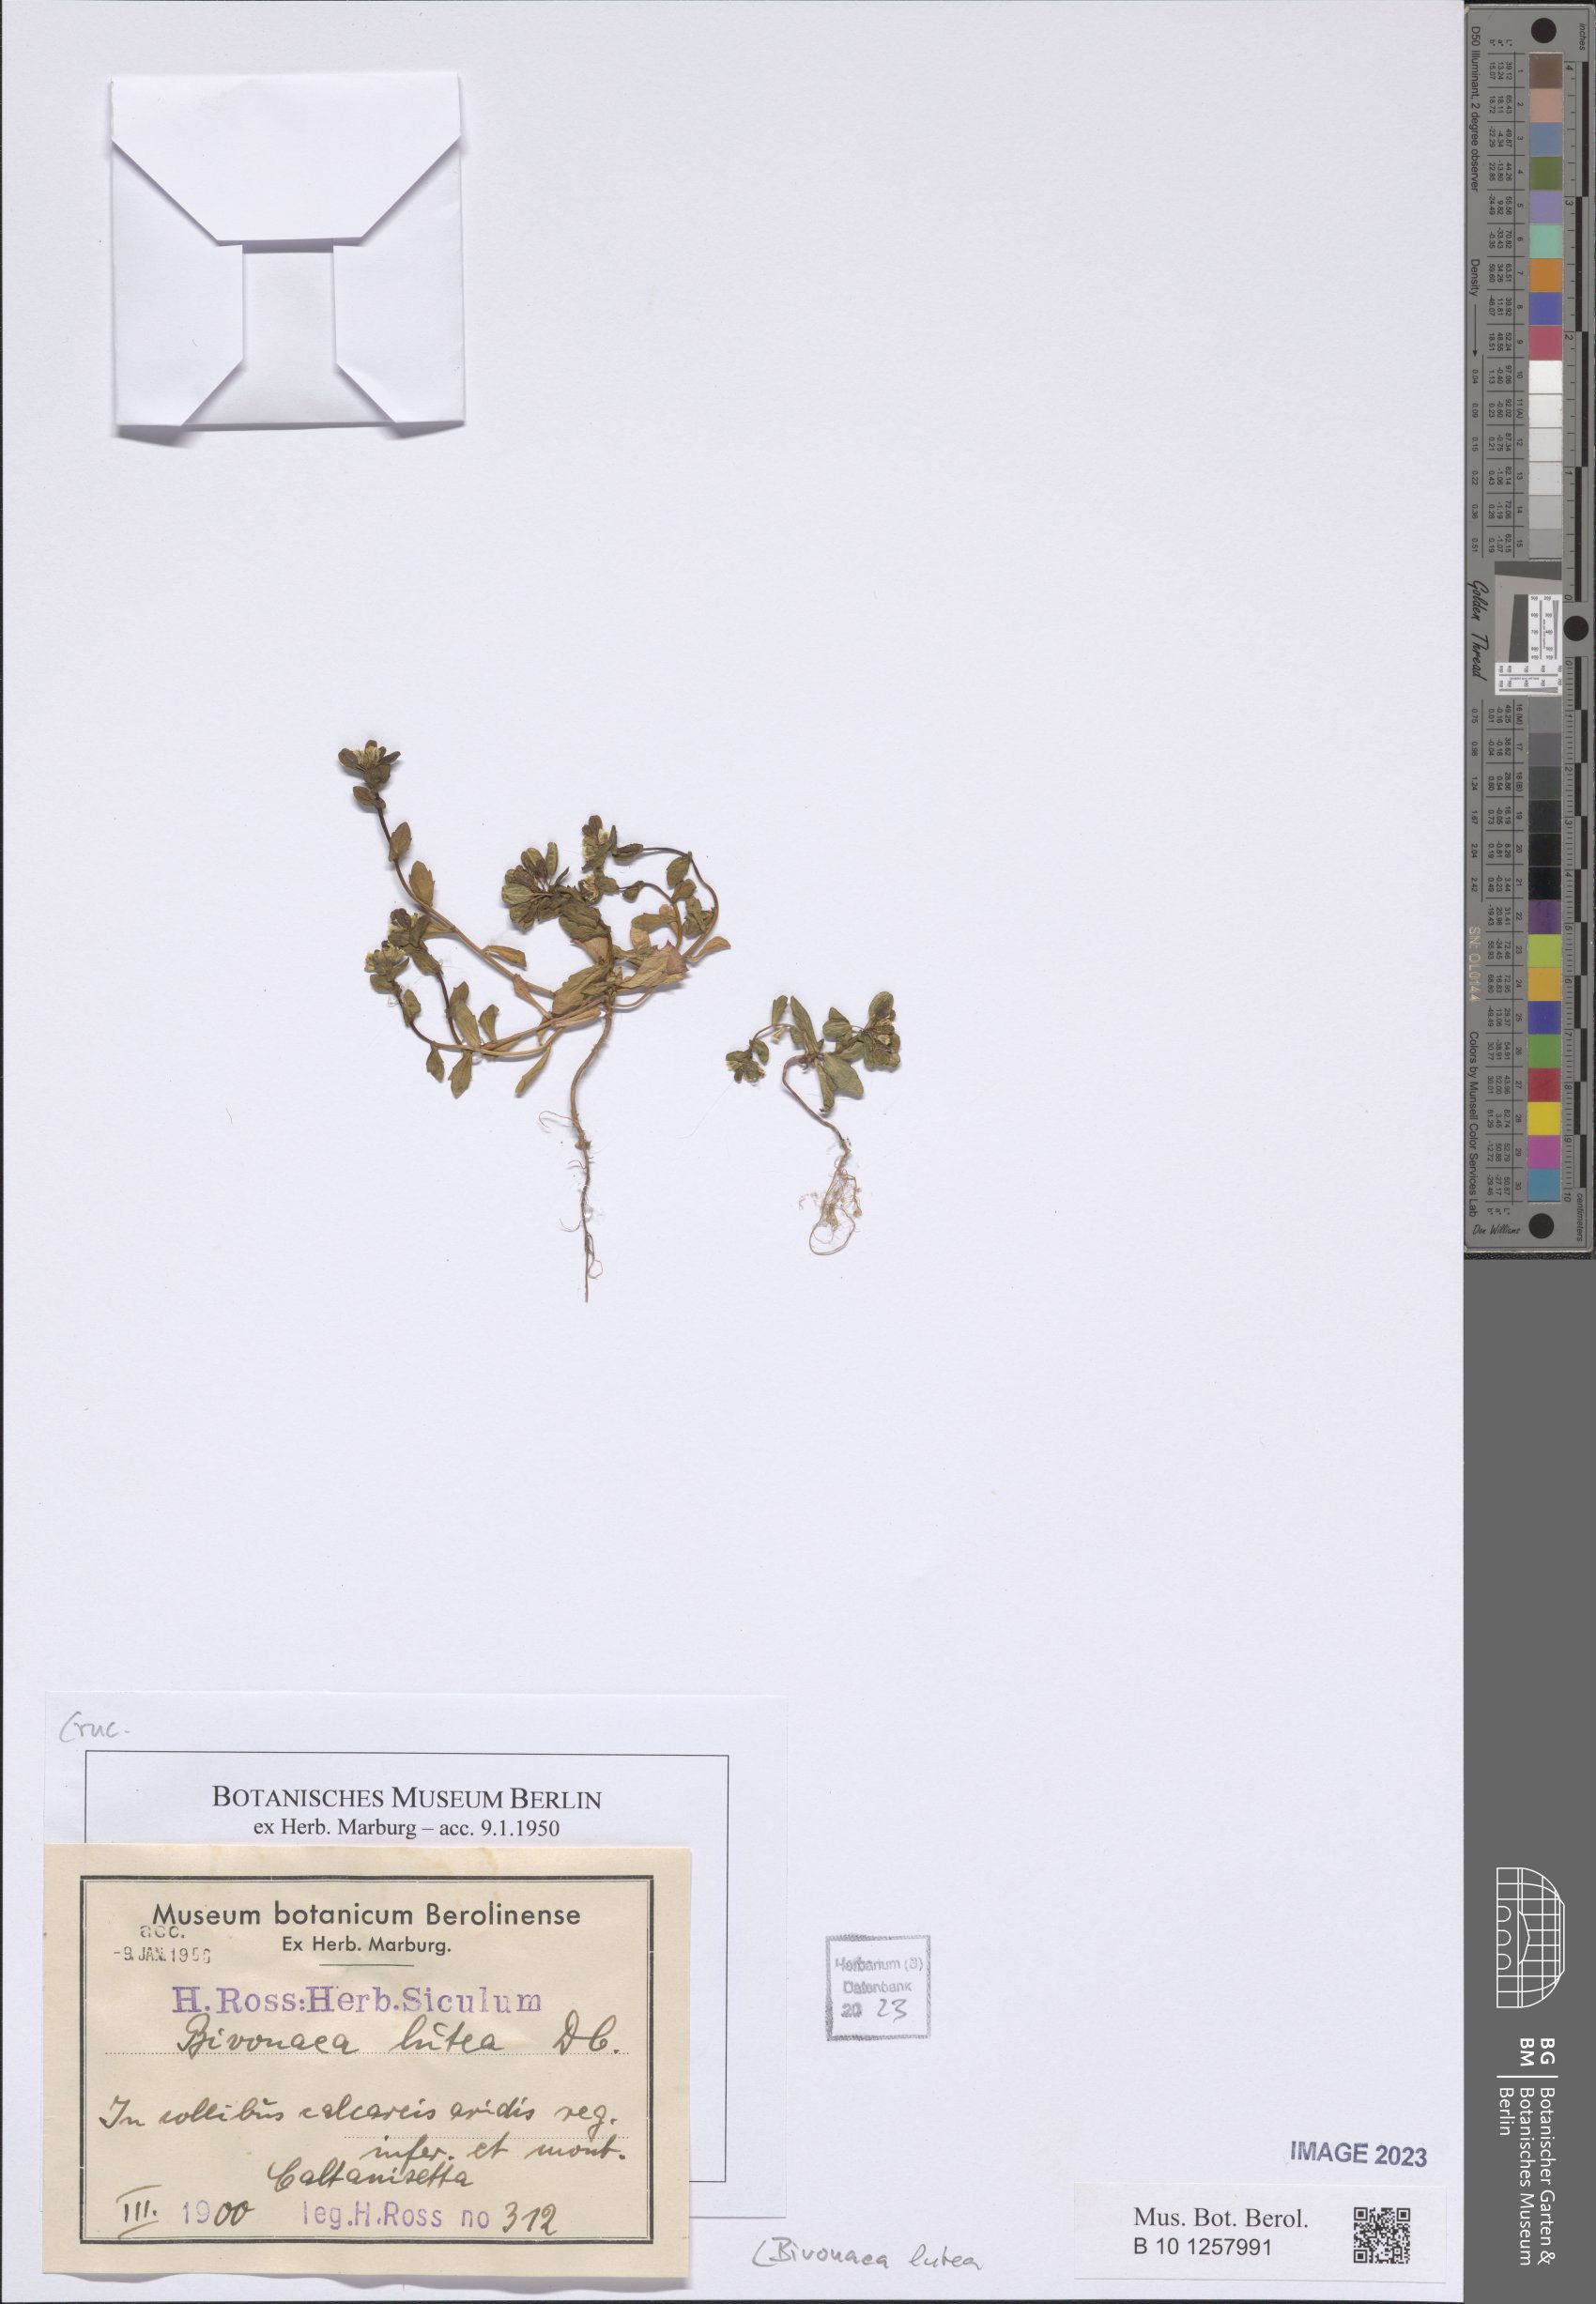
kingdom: Plantae
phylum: Tracheophyta
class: Magnoliopsida
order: Brassicales
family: Brassicaceae
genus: Bivonaea
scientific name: Bivonaea lutea
